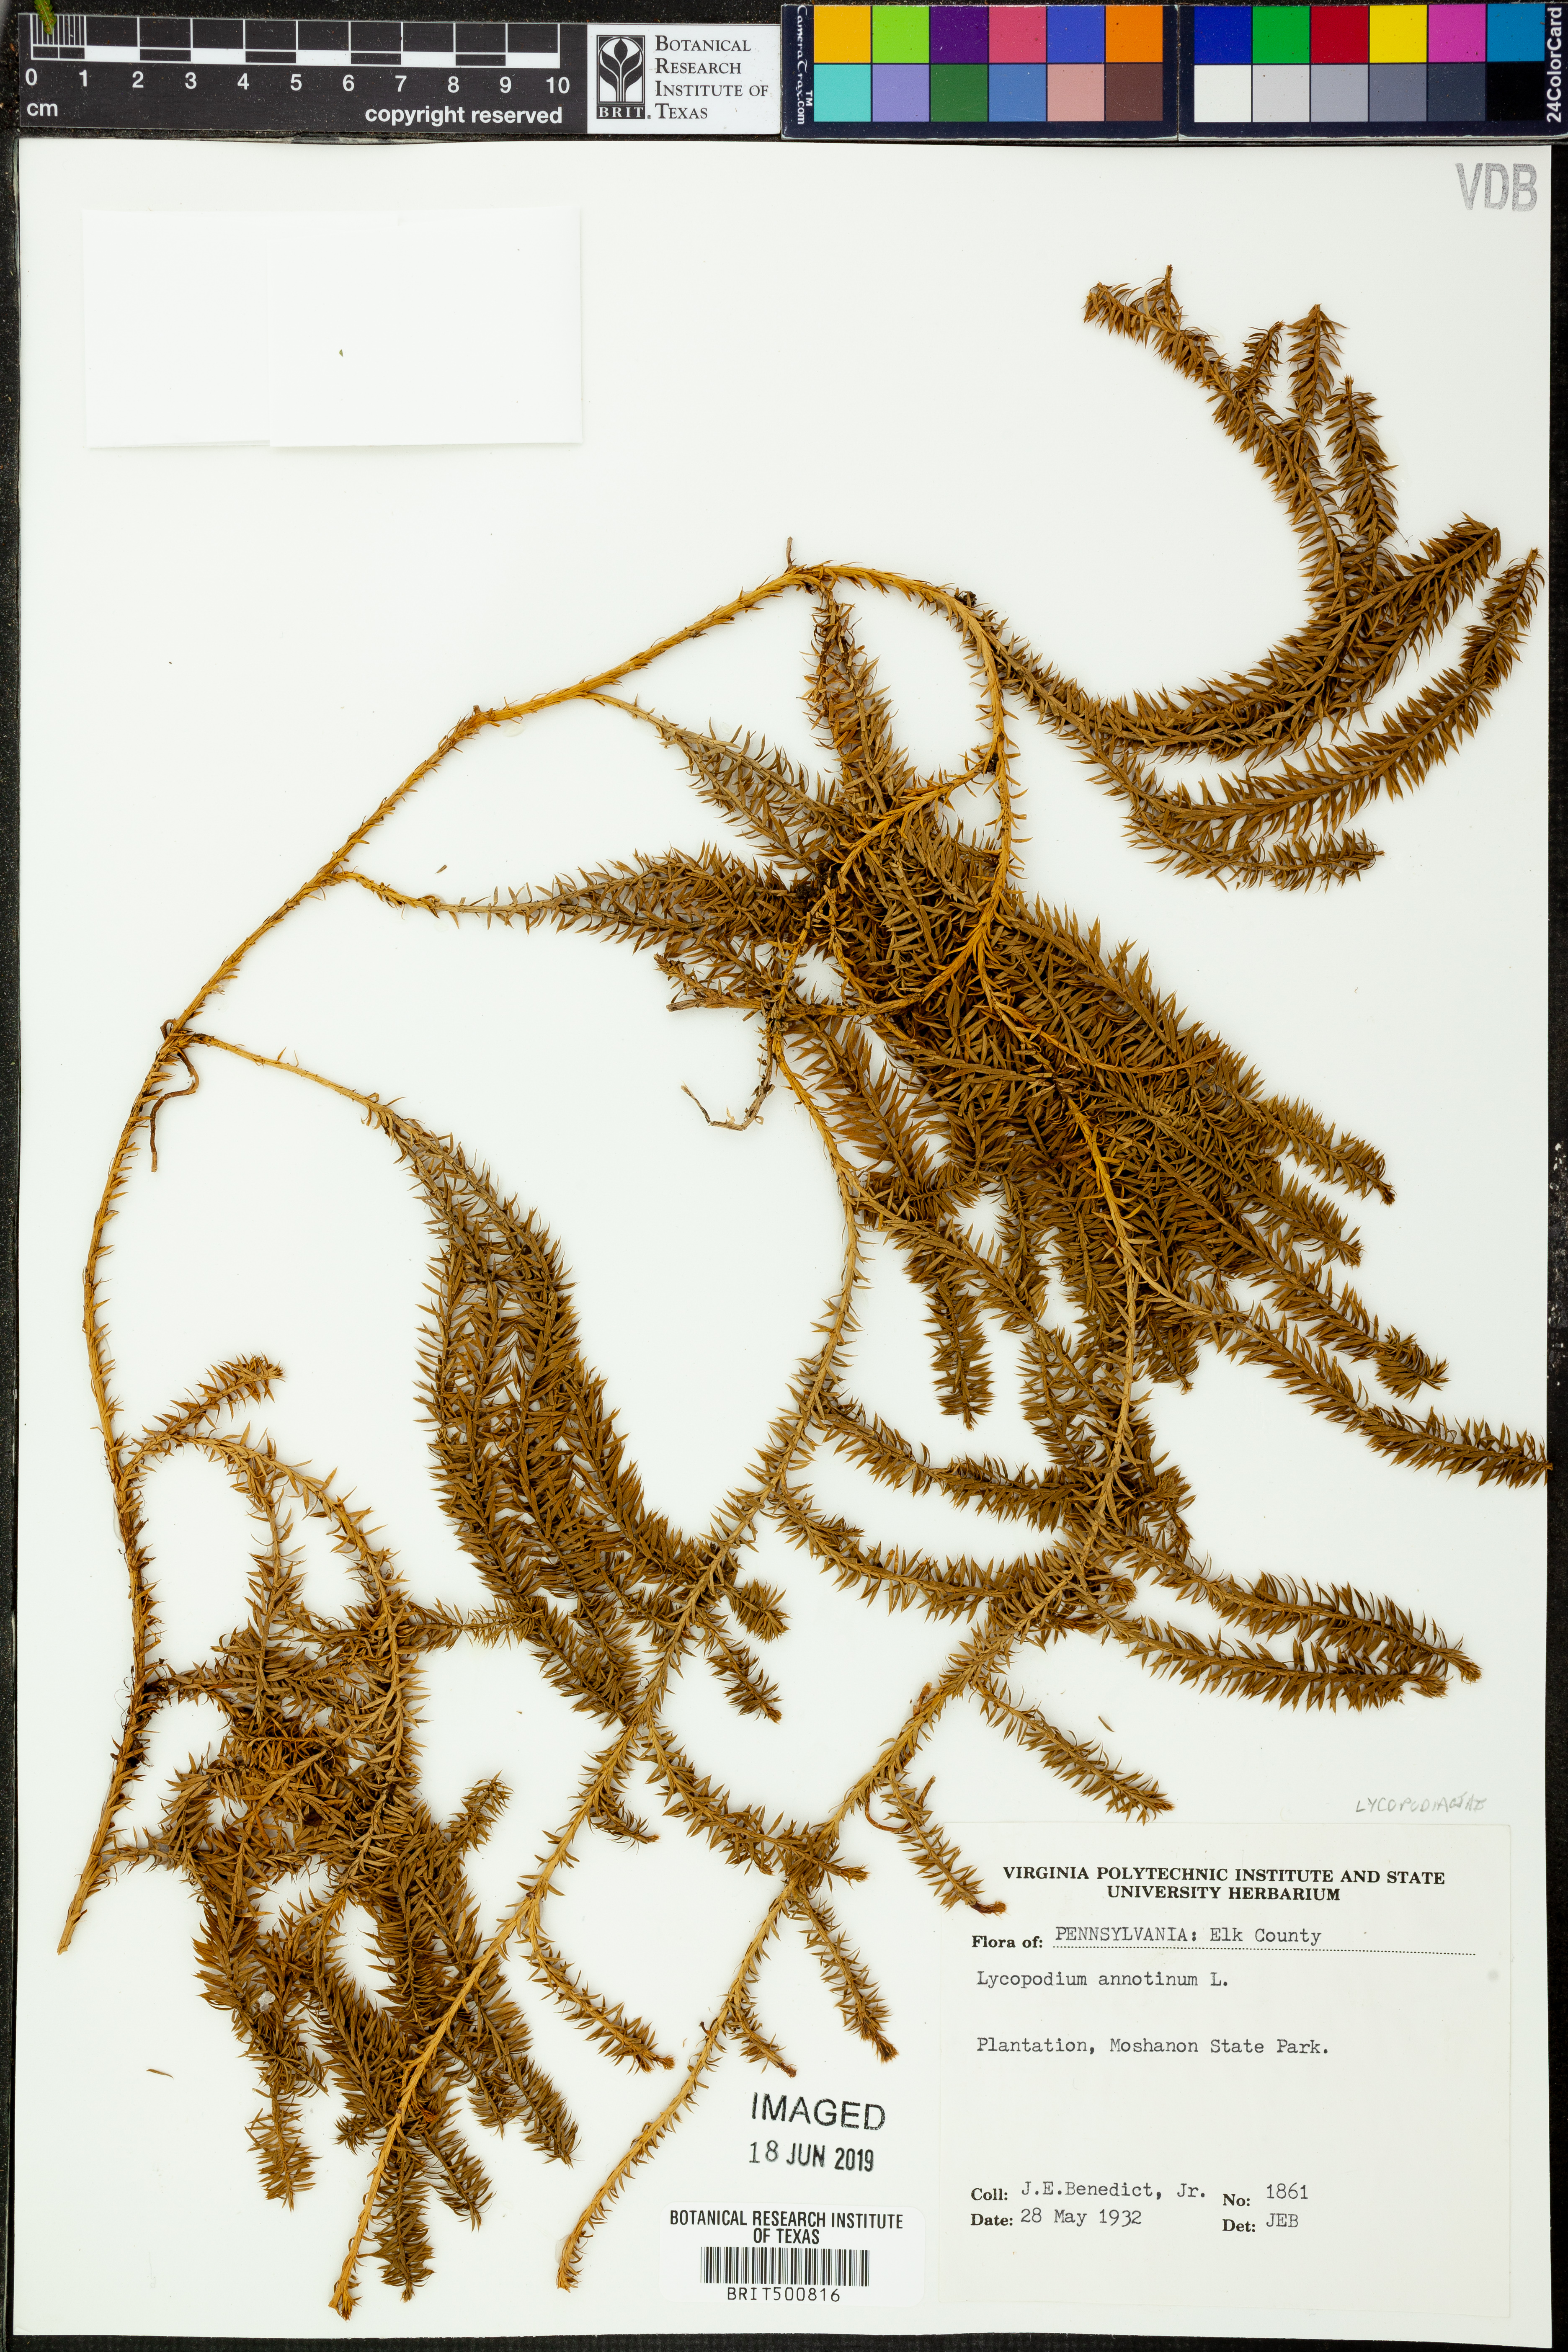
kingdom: Plantae
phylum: Tracheophyta
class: Lycopodiopsida
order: Lycopodiales
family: Lycopodiaceae
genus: Spinulum
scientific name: Spinulum annotinum
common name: Interrupted club-moss
